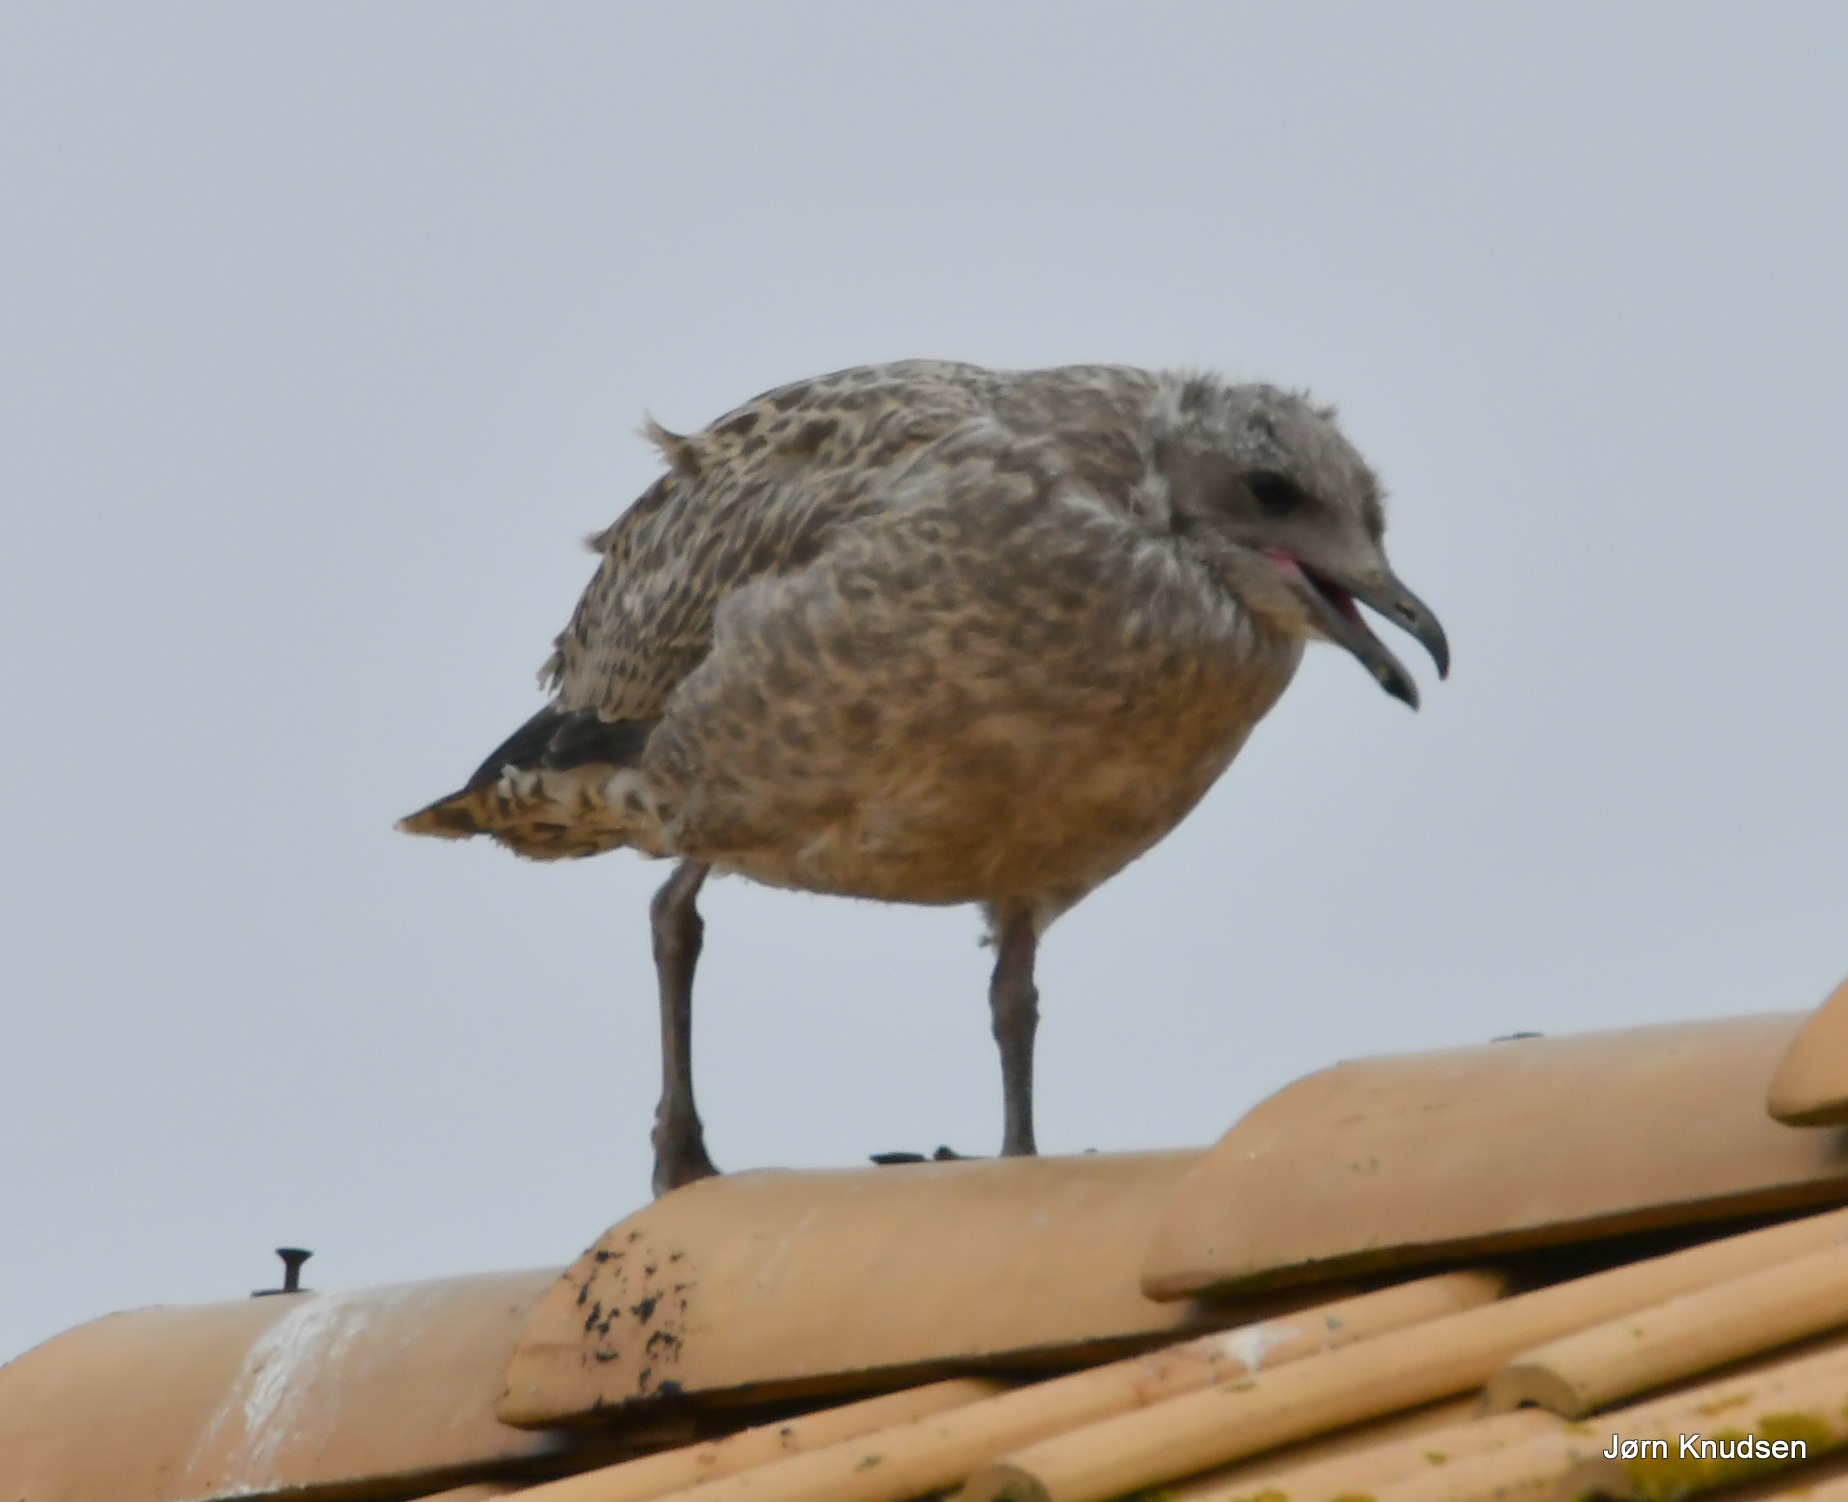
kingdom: Animalia
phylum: Chordata
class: Aves
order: Charadriiformes
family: Laridae
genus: Larus
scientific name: Larus argentatus
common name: Sølvmåge
